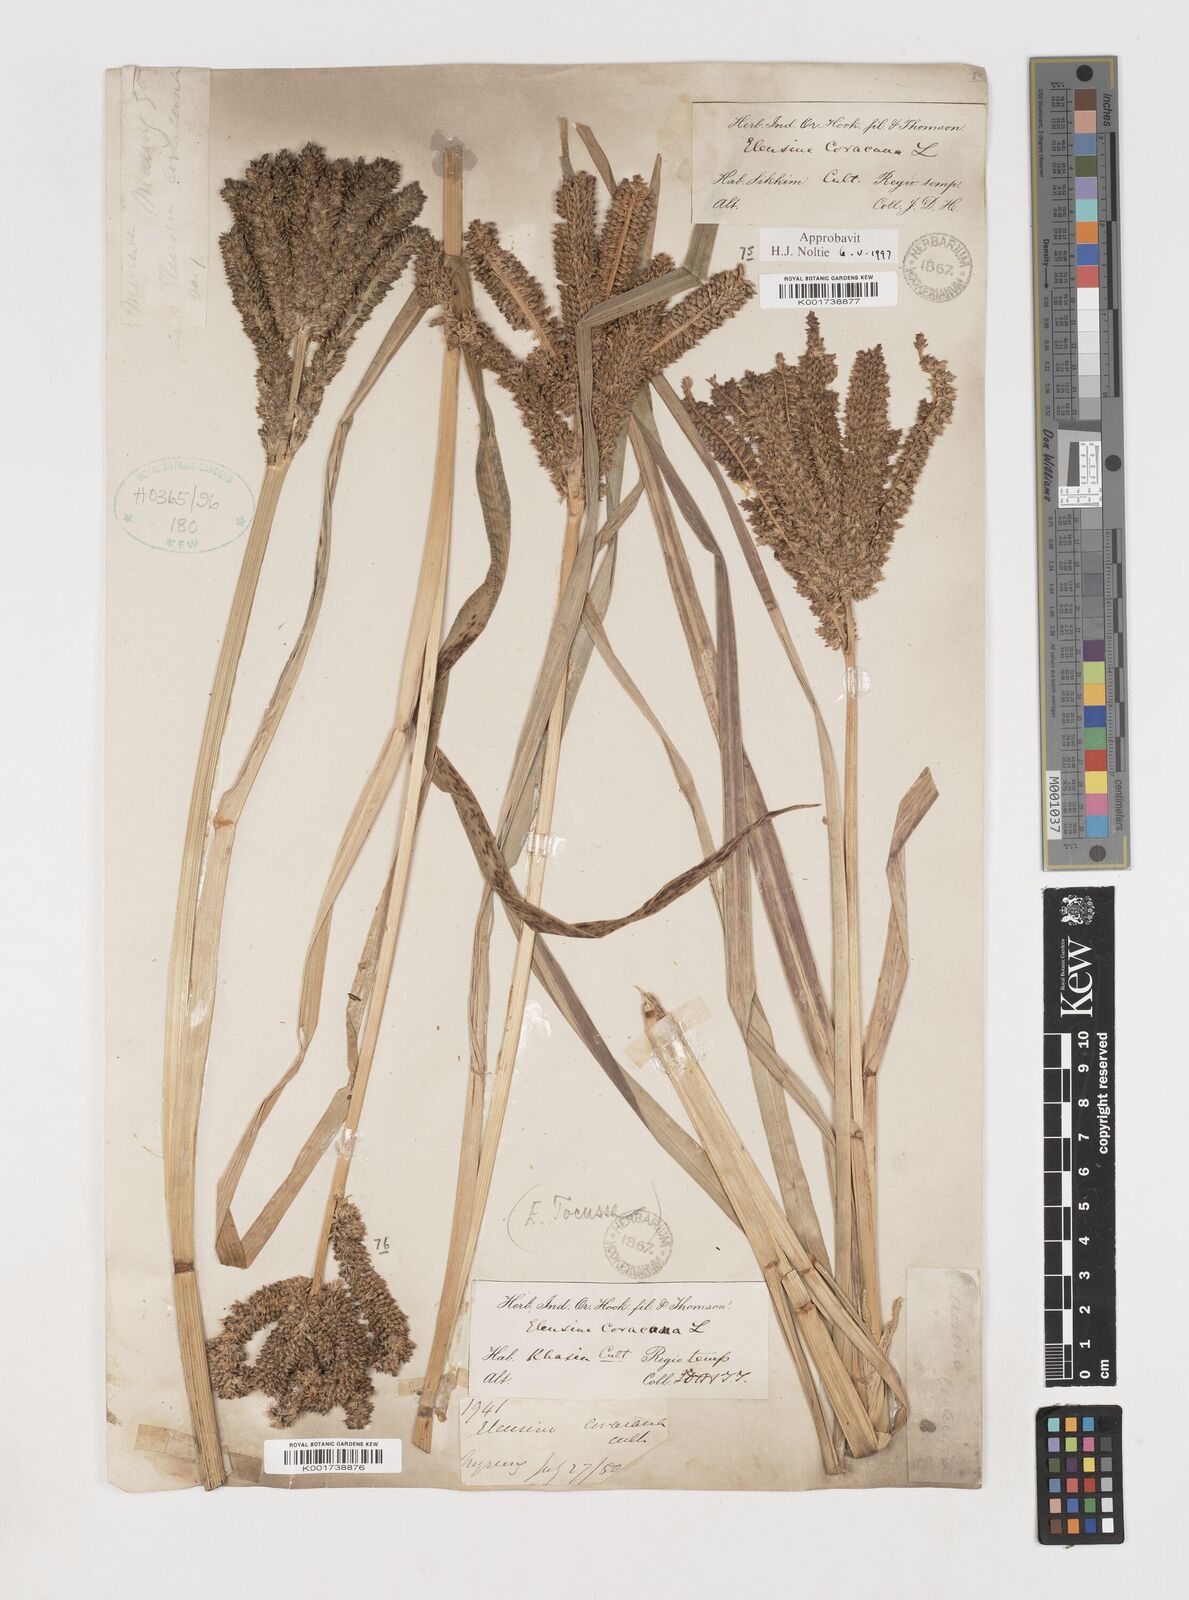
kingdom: Plantae
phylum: Tracheophyta
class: Liliopsida
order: Poales
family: Poaceae
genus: Eleusine
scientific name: Eleusine coracana
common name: Finger millet
